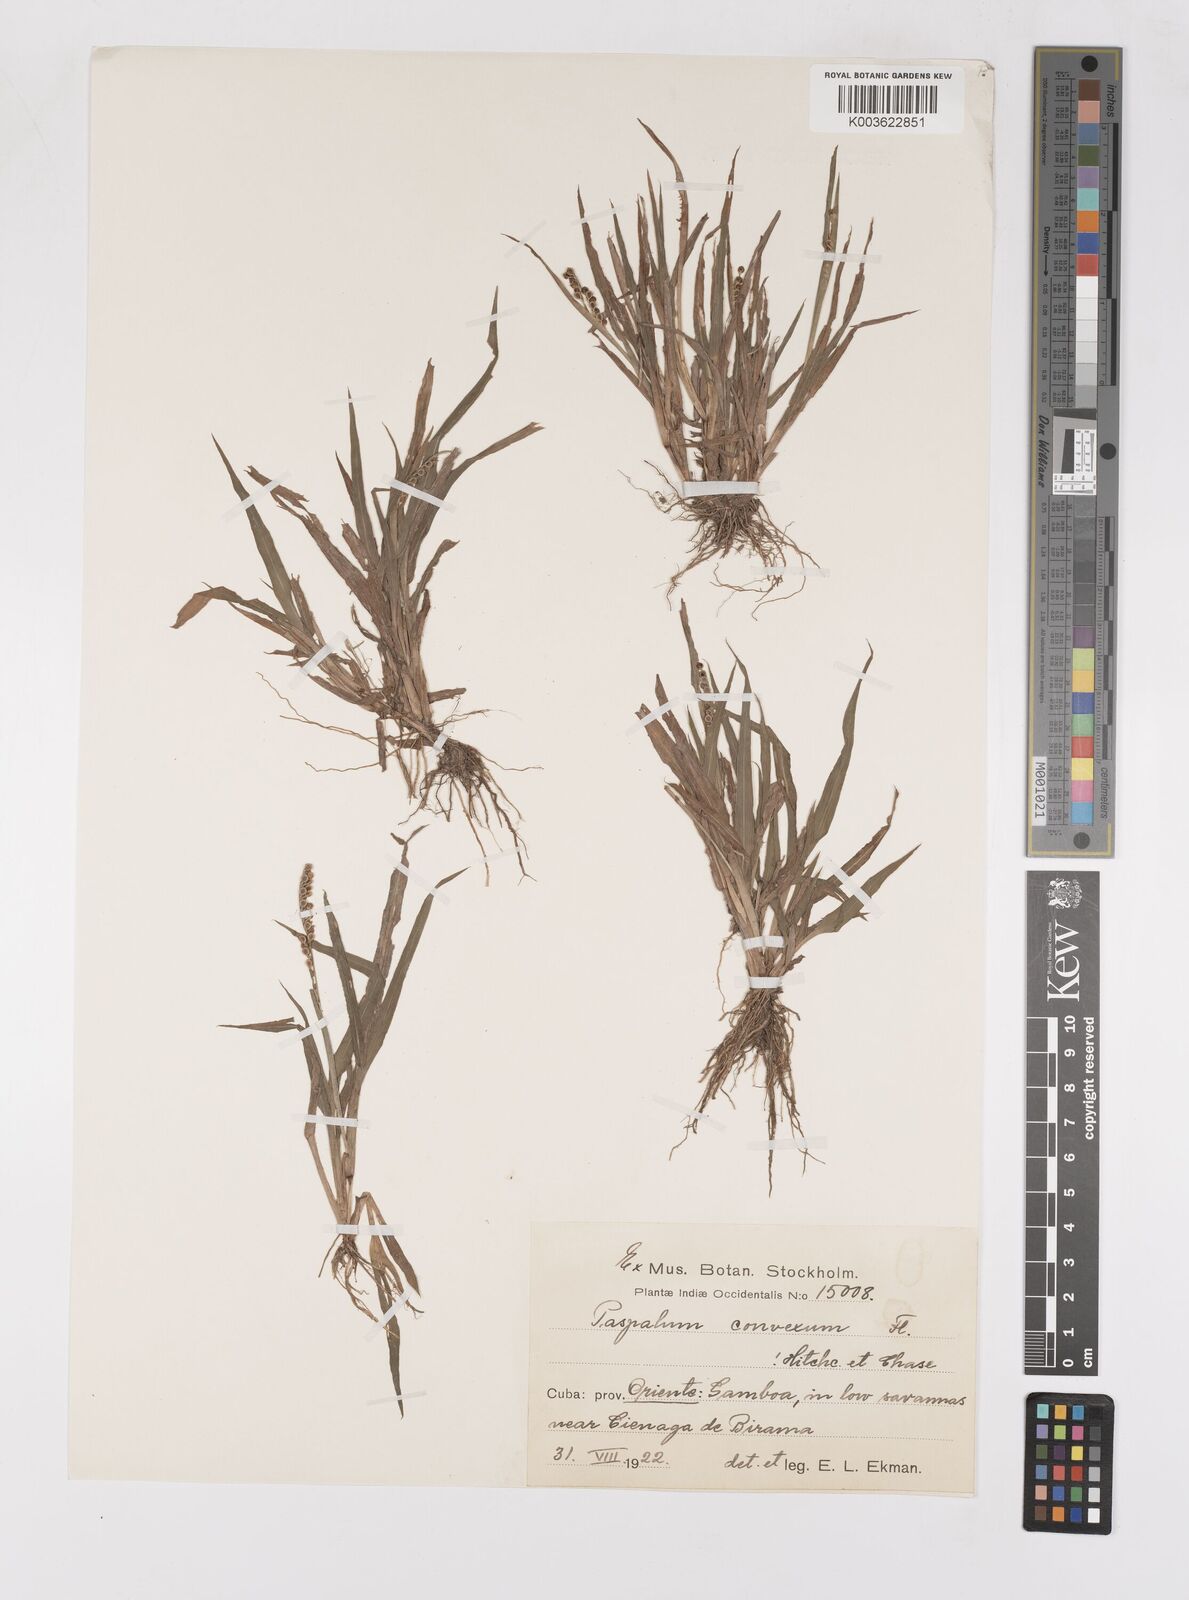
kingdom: Plantae
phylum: Tracheophyta
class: Liliopsida
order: Poales
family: Poaceae
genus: Paspalum
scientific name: Paspalum glabrinode
